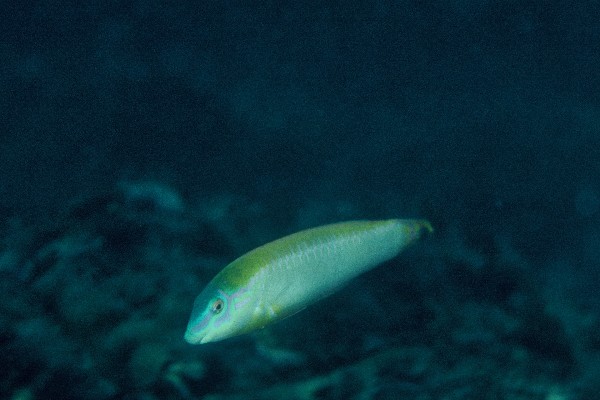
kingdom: Animalia
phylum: Chordata
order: Perciformes
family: Labridae
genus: Halichoeres
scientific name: Halichoeres scapularis
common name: Brownbanded wrasse
